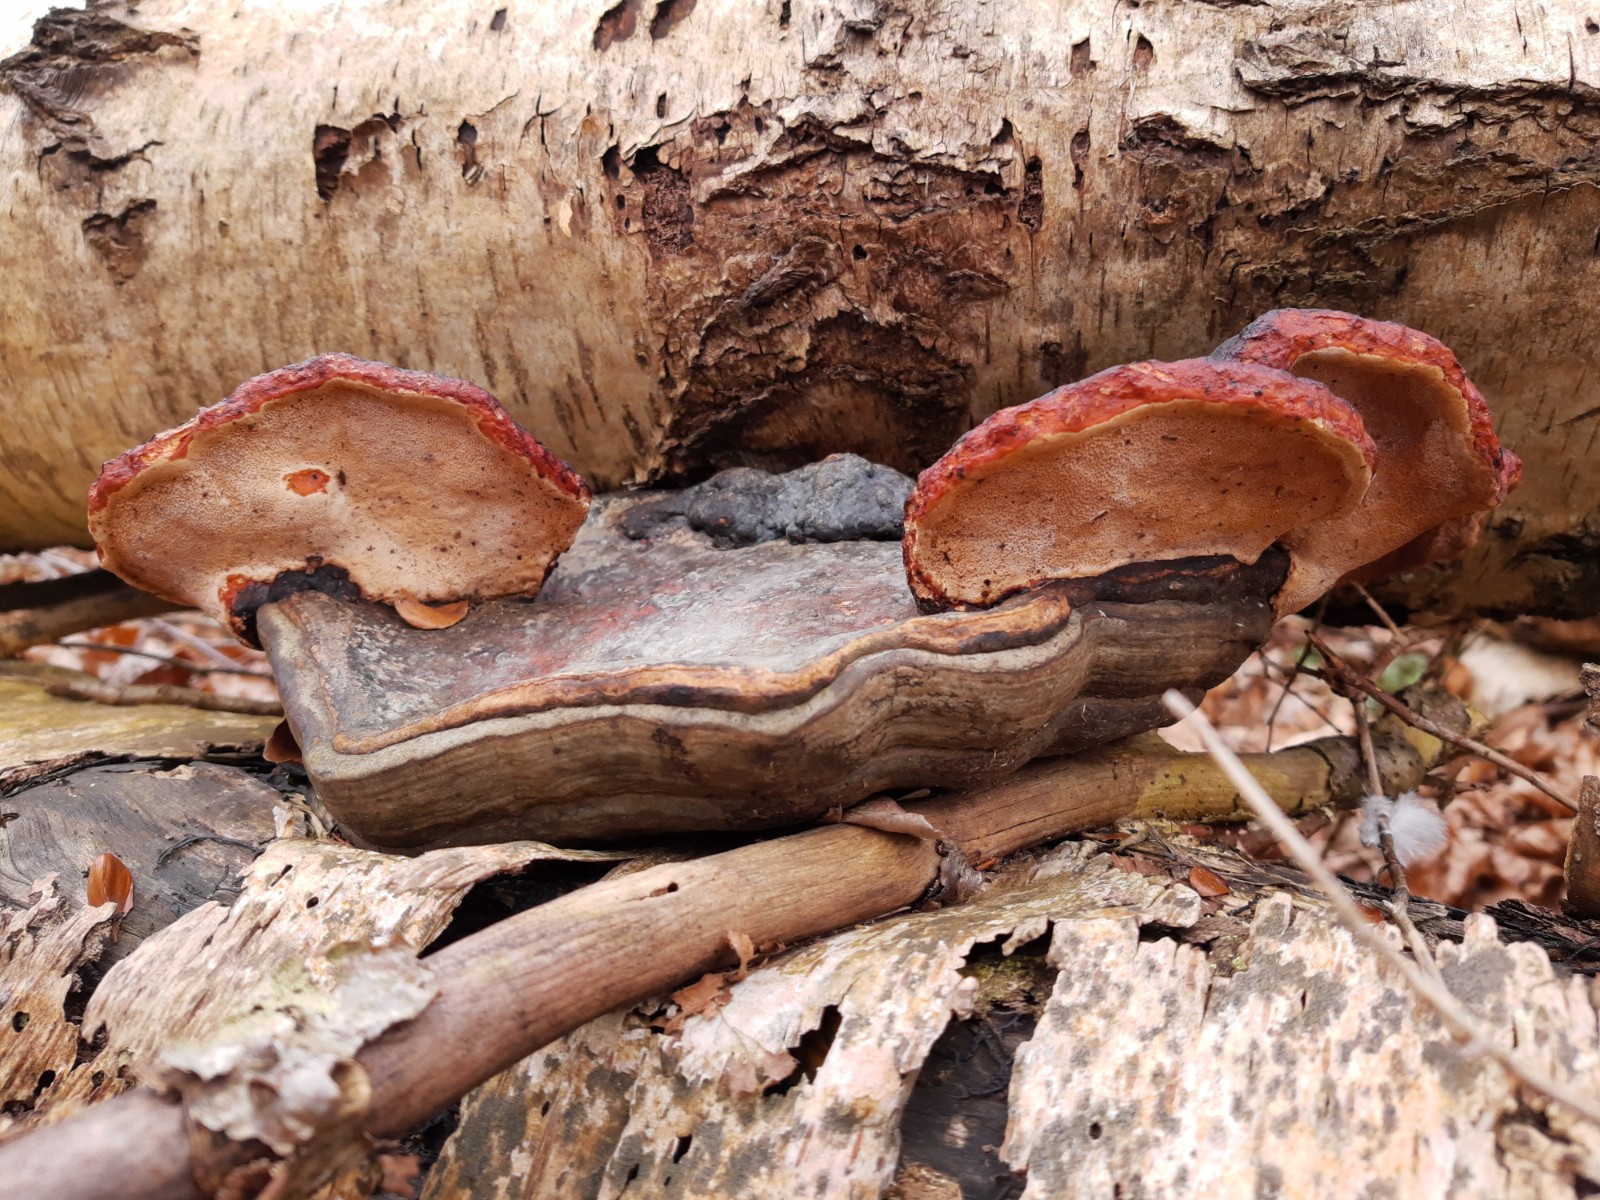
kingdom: Fungi
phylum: Basidiomycota
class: Agaricomycetes
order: Polyporales
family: Fomitopsidaceae
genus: Fomitopsis
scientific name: Fomitopsis pinicola
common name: randbæltet hovporesvamp
